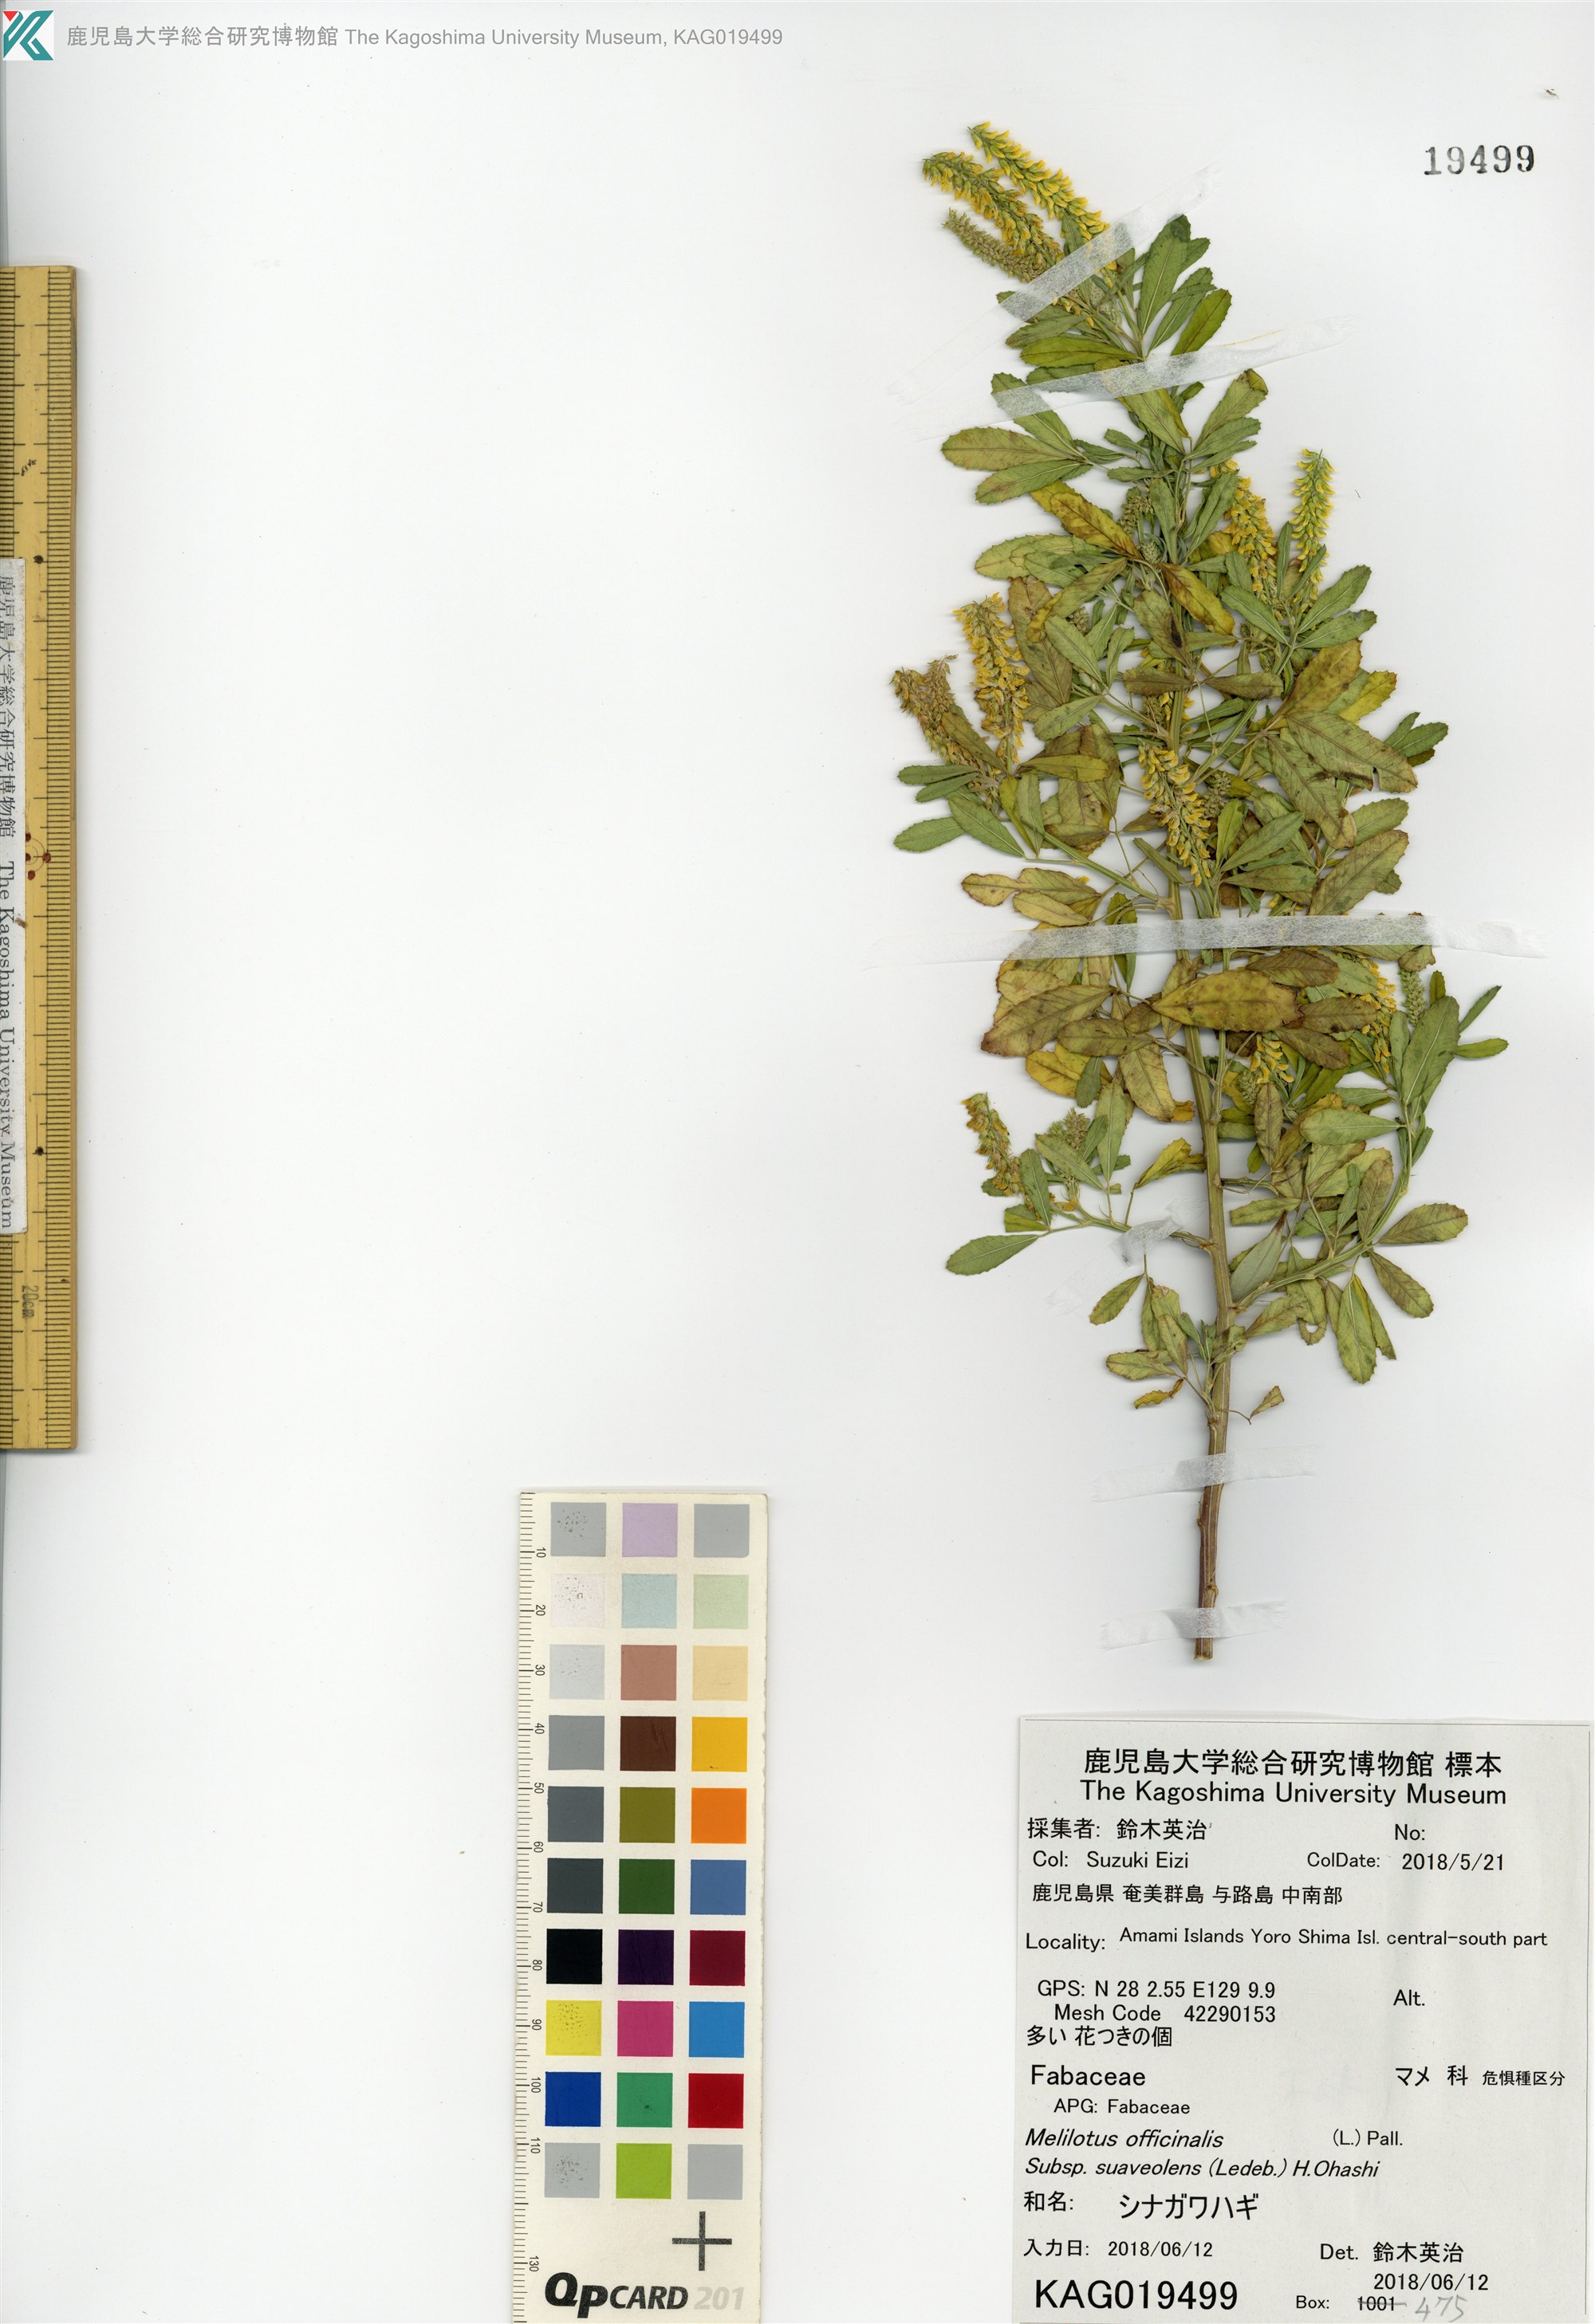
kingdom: Plantae
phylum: Tracheophyta
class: Magnoliopsida
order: Fabales
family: Fabaceae
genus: Melilotus
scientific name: Melilotus suaveolens
